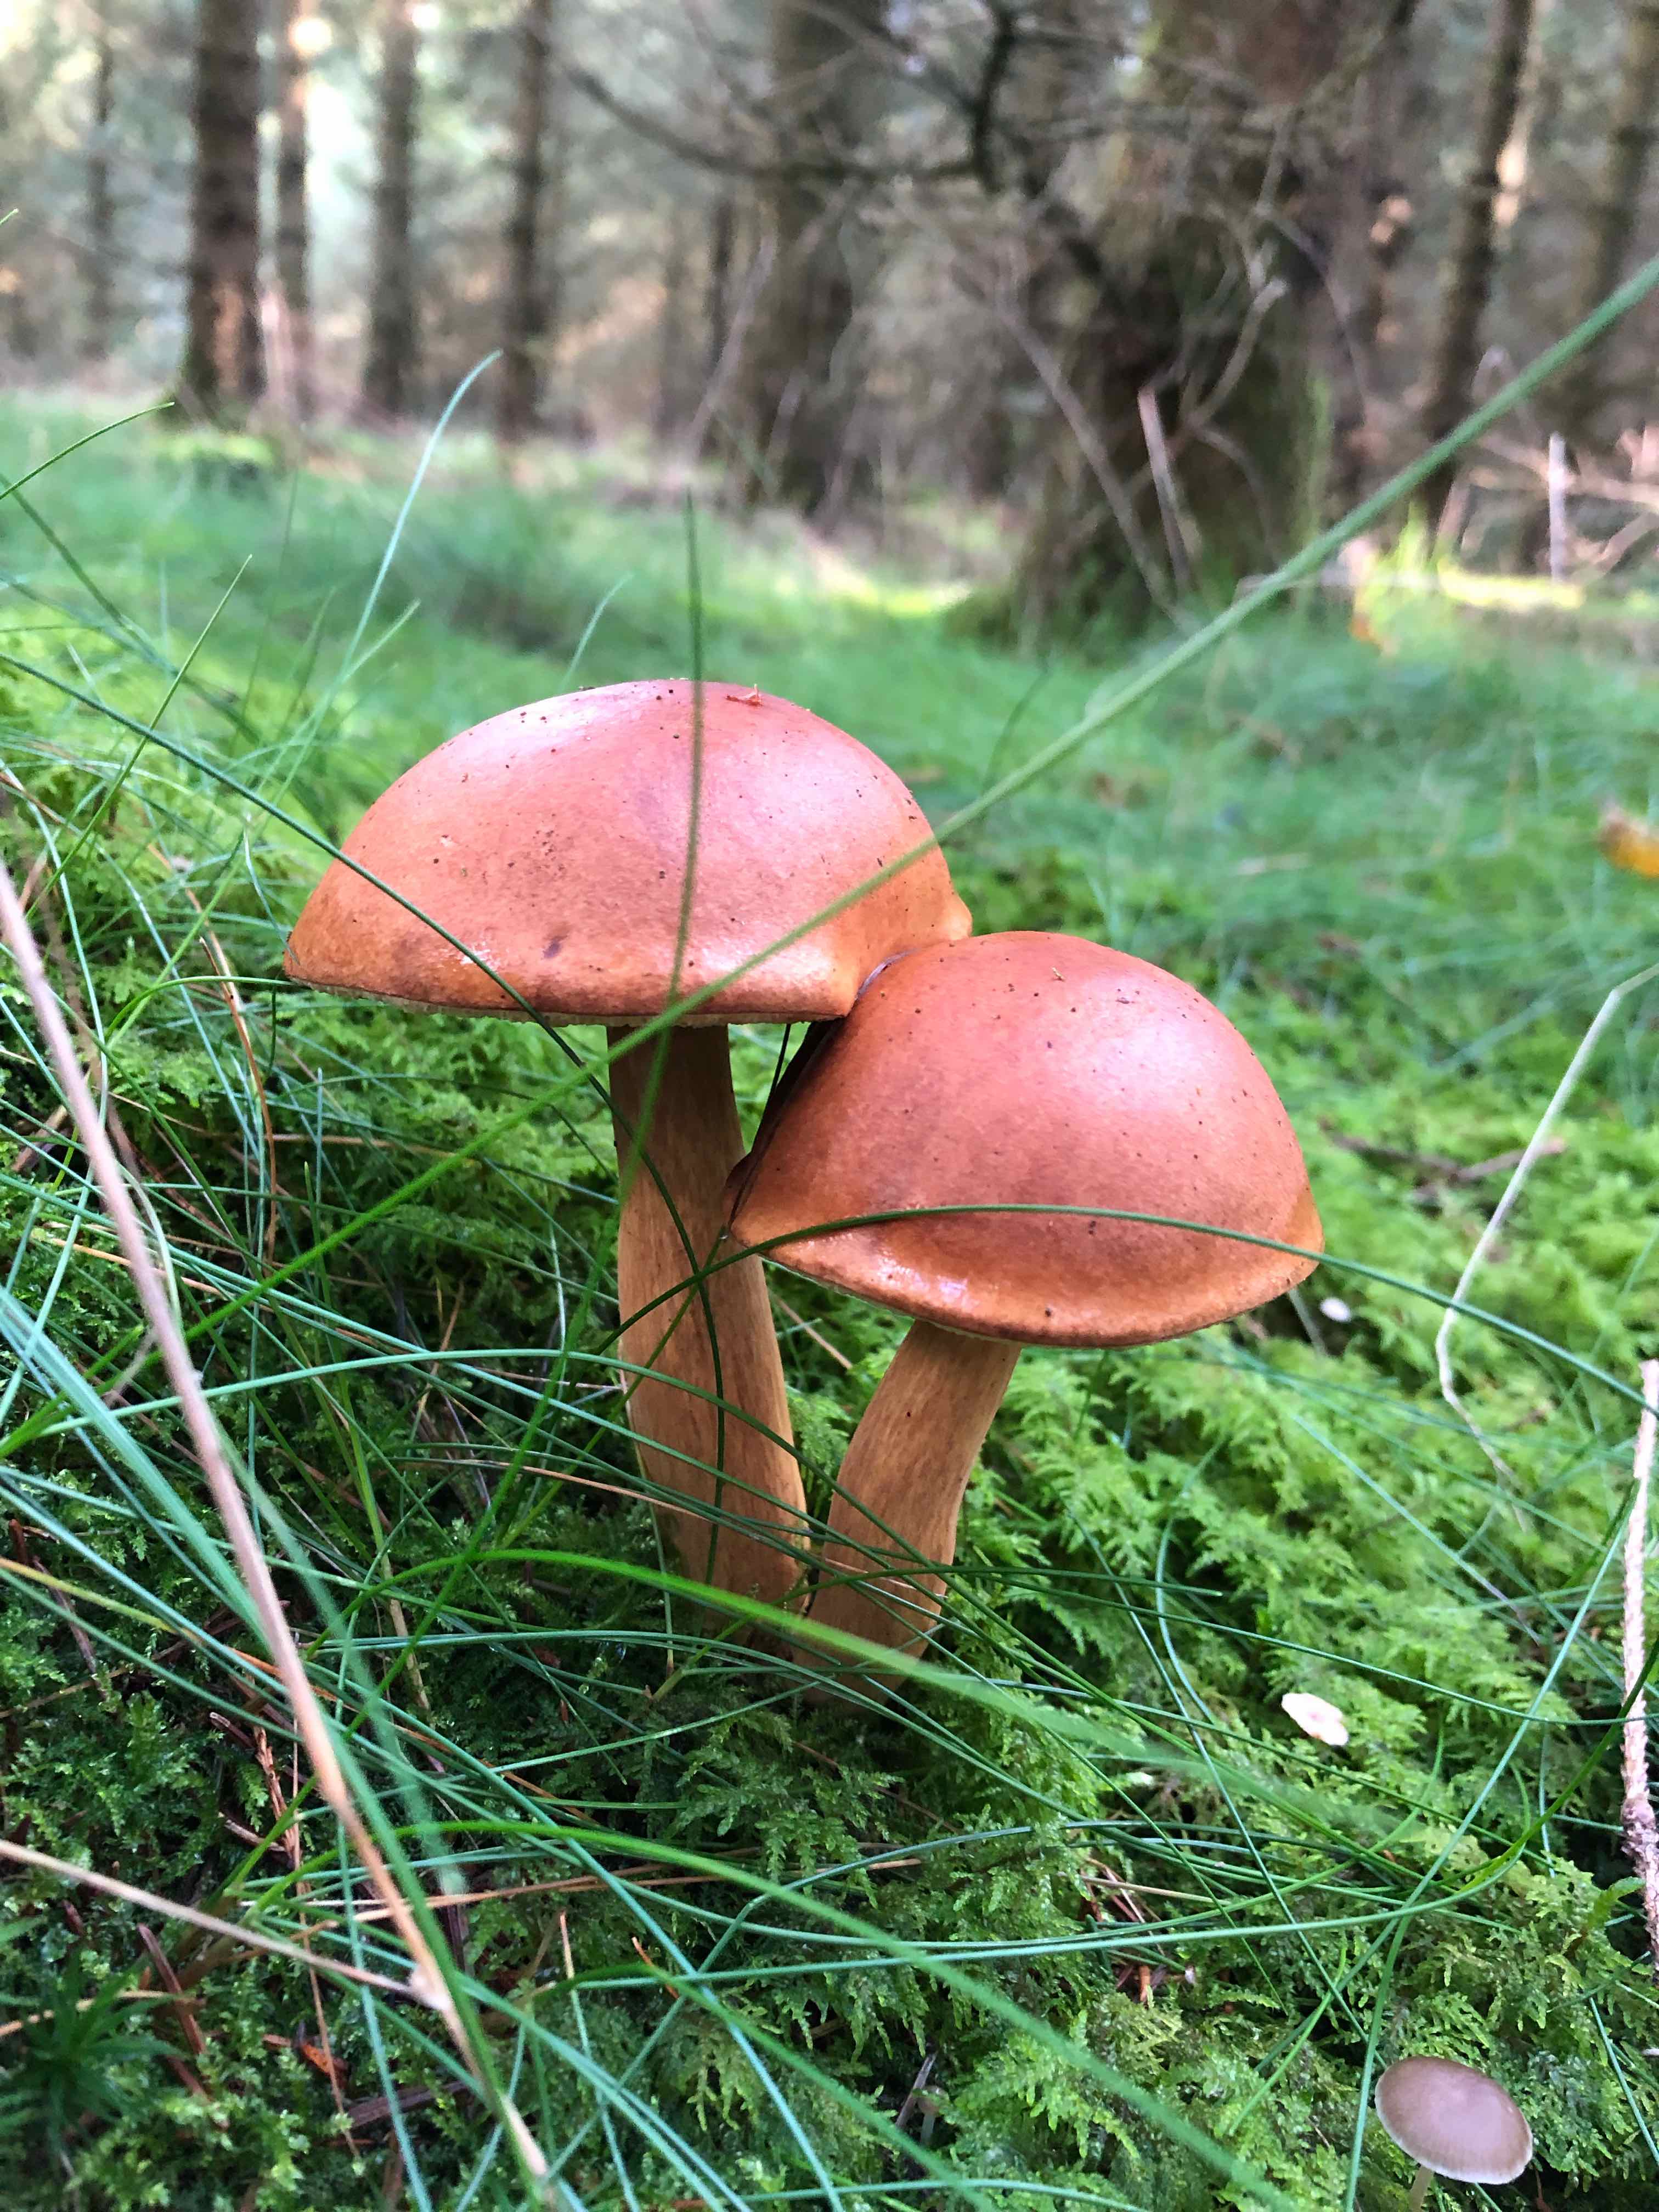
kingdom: Fungi
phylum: Basidiomycota
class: Agaricomycetes
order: Boletales
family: Boletaceae
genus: Imleria
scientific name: Imleria badia
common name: brunstokket rørhat
